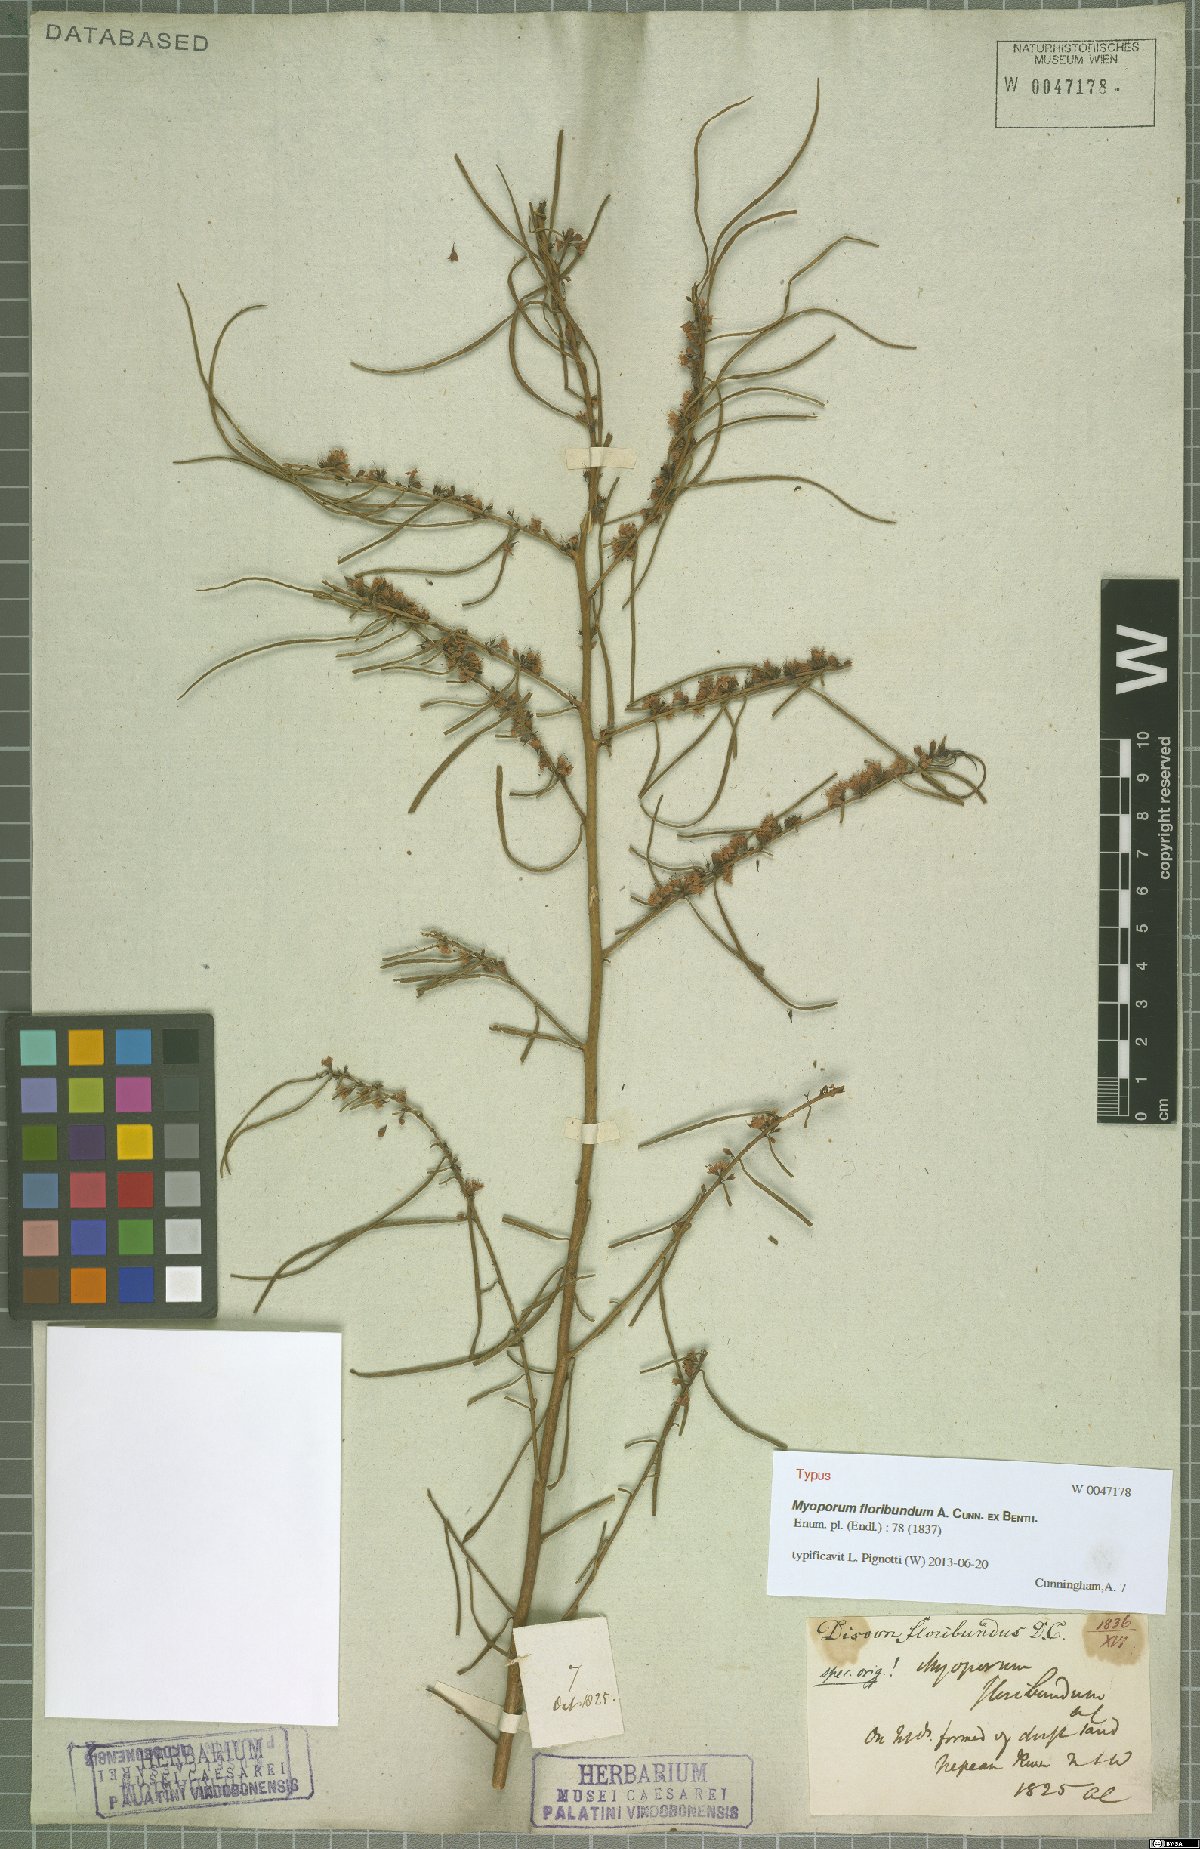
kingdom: Plantae
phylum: Tracheophyta
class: Magnoliopsida
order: Lamiales
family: Scrophulariaceae
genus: Myoporum
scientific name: Myoporum floribundum
